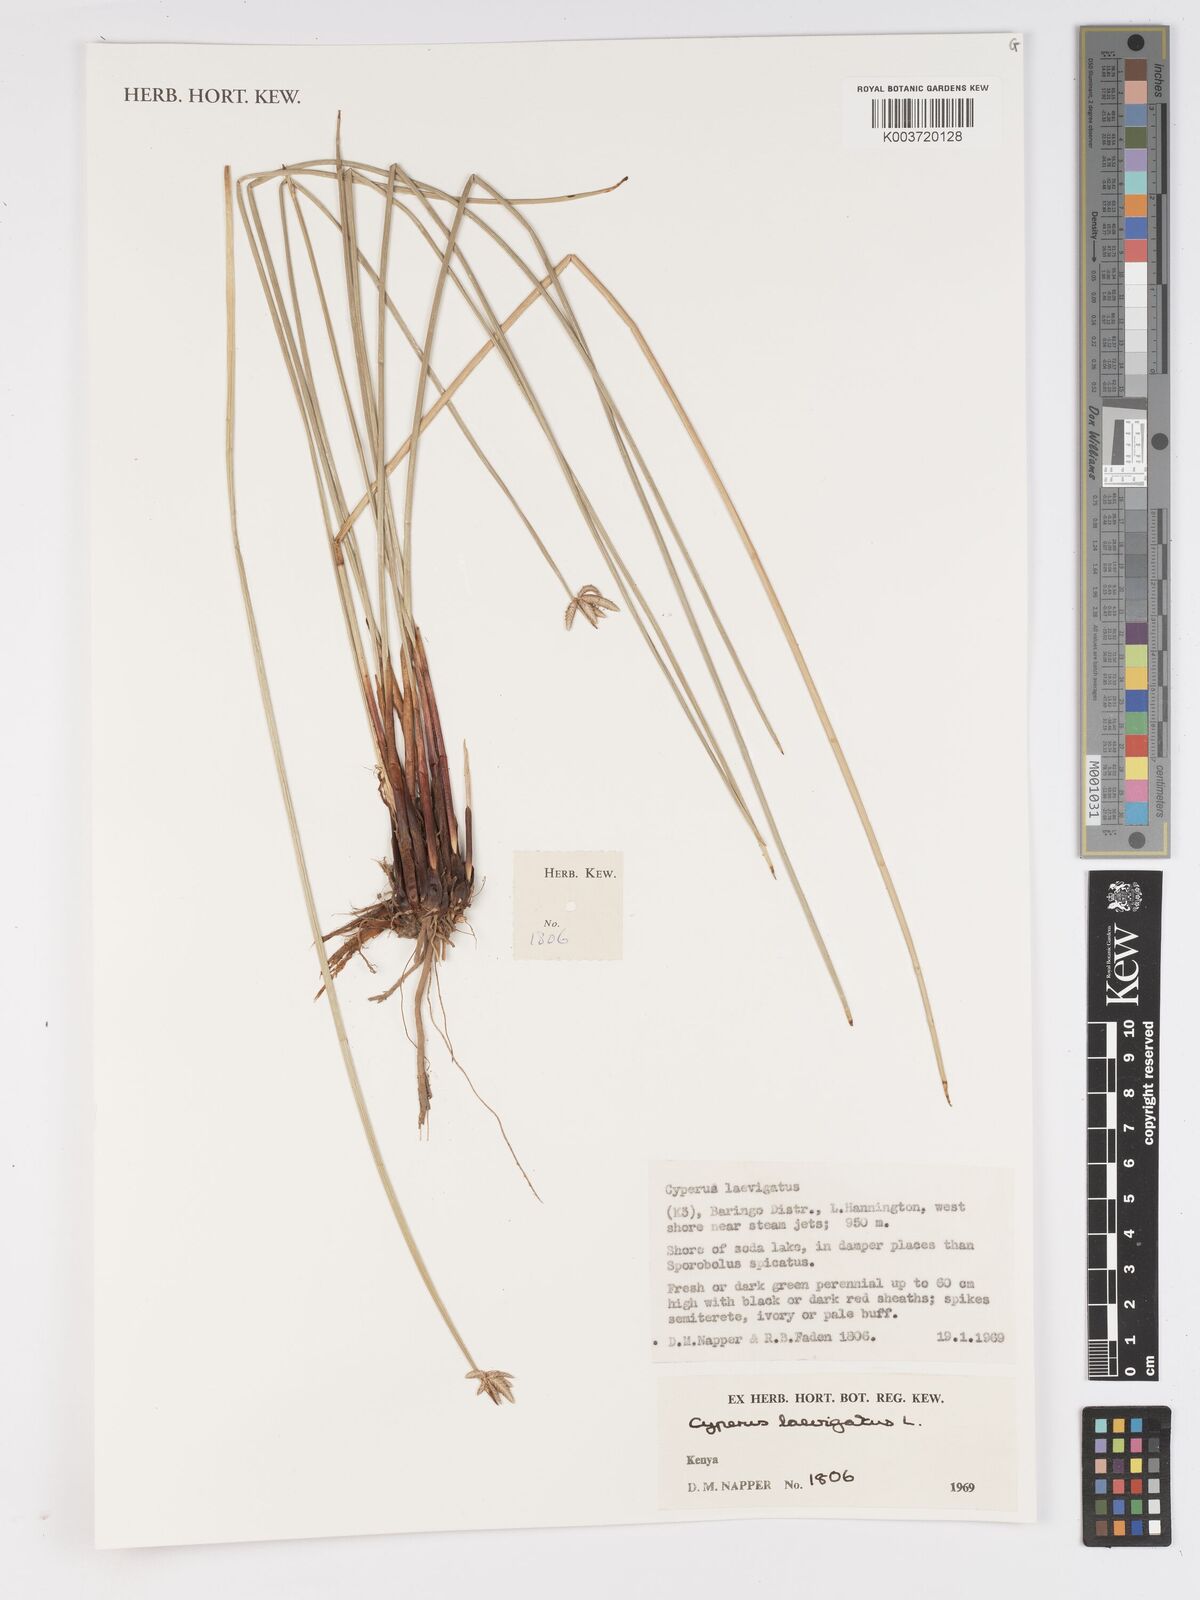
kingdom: Plantae
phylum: Tracheophyta
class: Liliopsida
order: Poales
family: Cyperaceae
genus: Cyperus
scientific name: Cyperus laevigatus
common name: Smooth flat sedge
